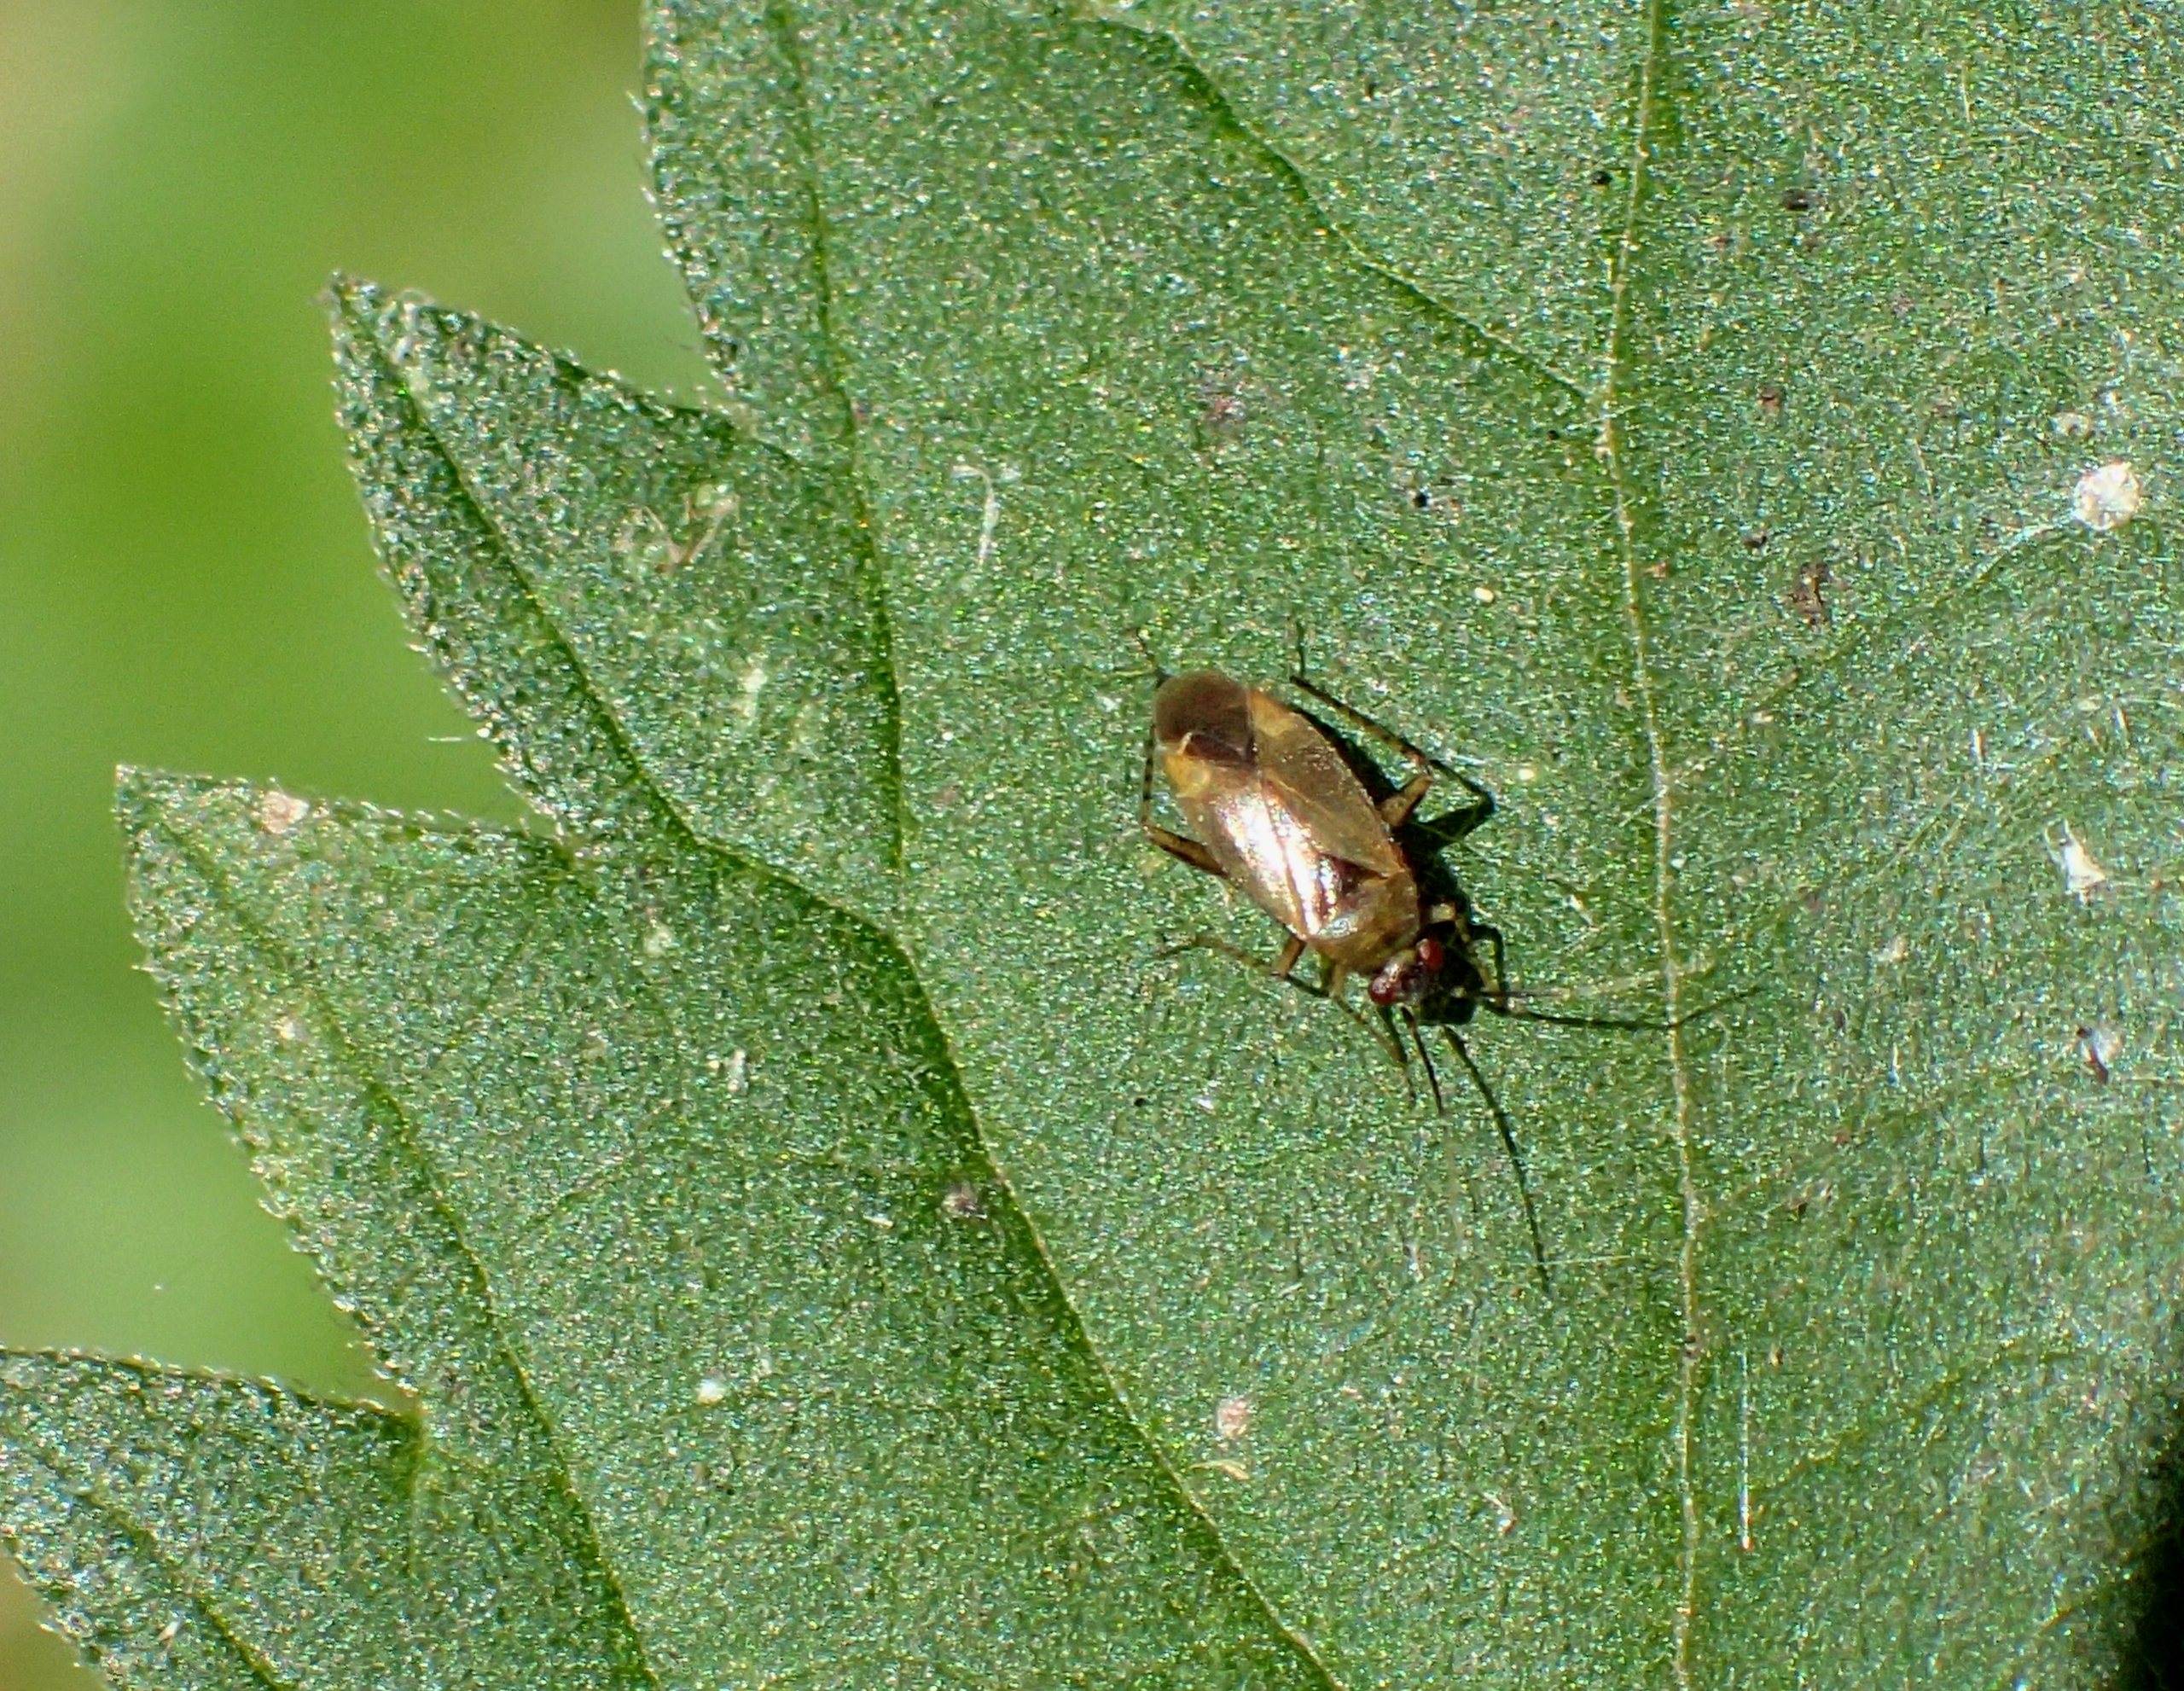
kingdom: Animalia
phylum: Arthropoda
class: Insecta
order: Hemiptera
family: Miridae
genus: Plagiognathus
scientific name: Plagiognathus arbustorum
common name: Almindelig nældeblomstertæge
